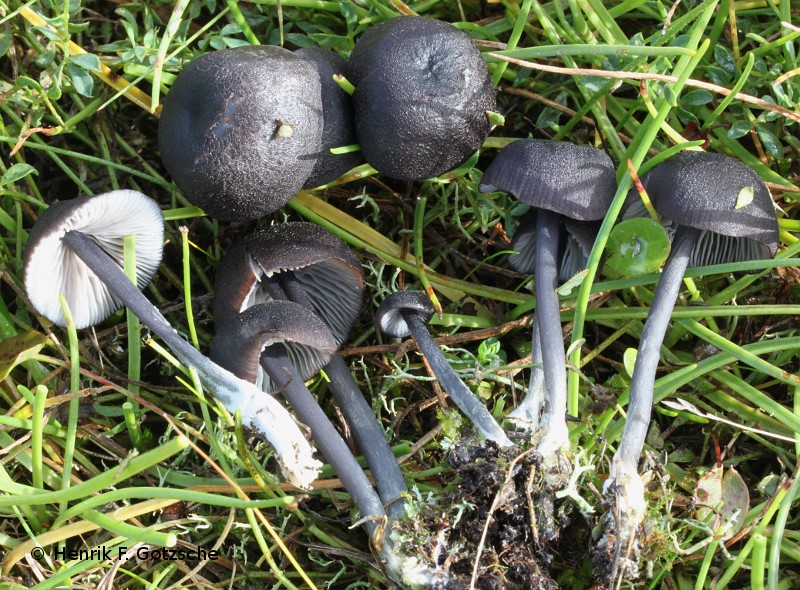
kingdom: Fungi
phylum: Basidiomycota
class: Agaricomycetes
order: Agaricales
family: Entolomataceae
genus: Entoloma
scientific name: Entoloma chalybeum
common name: blåbladet rødblad
